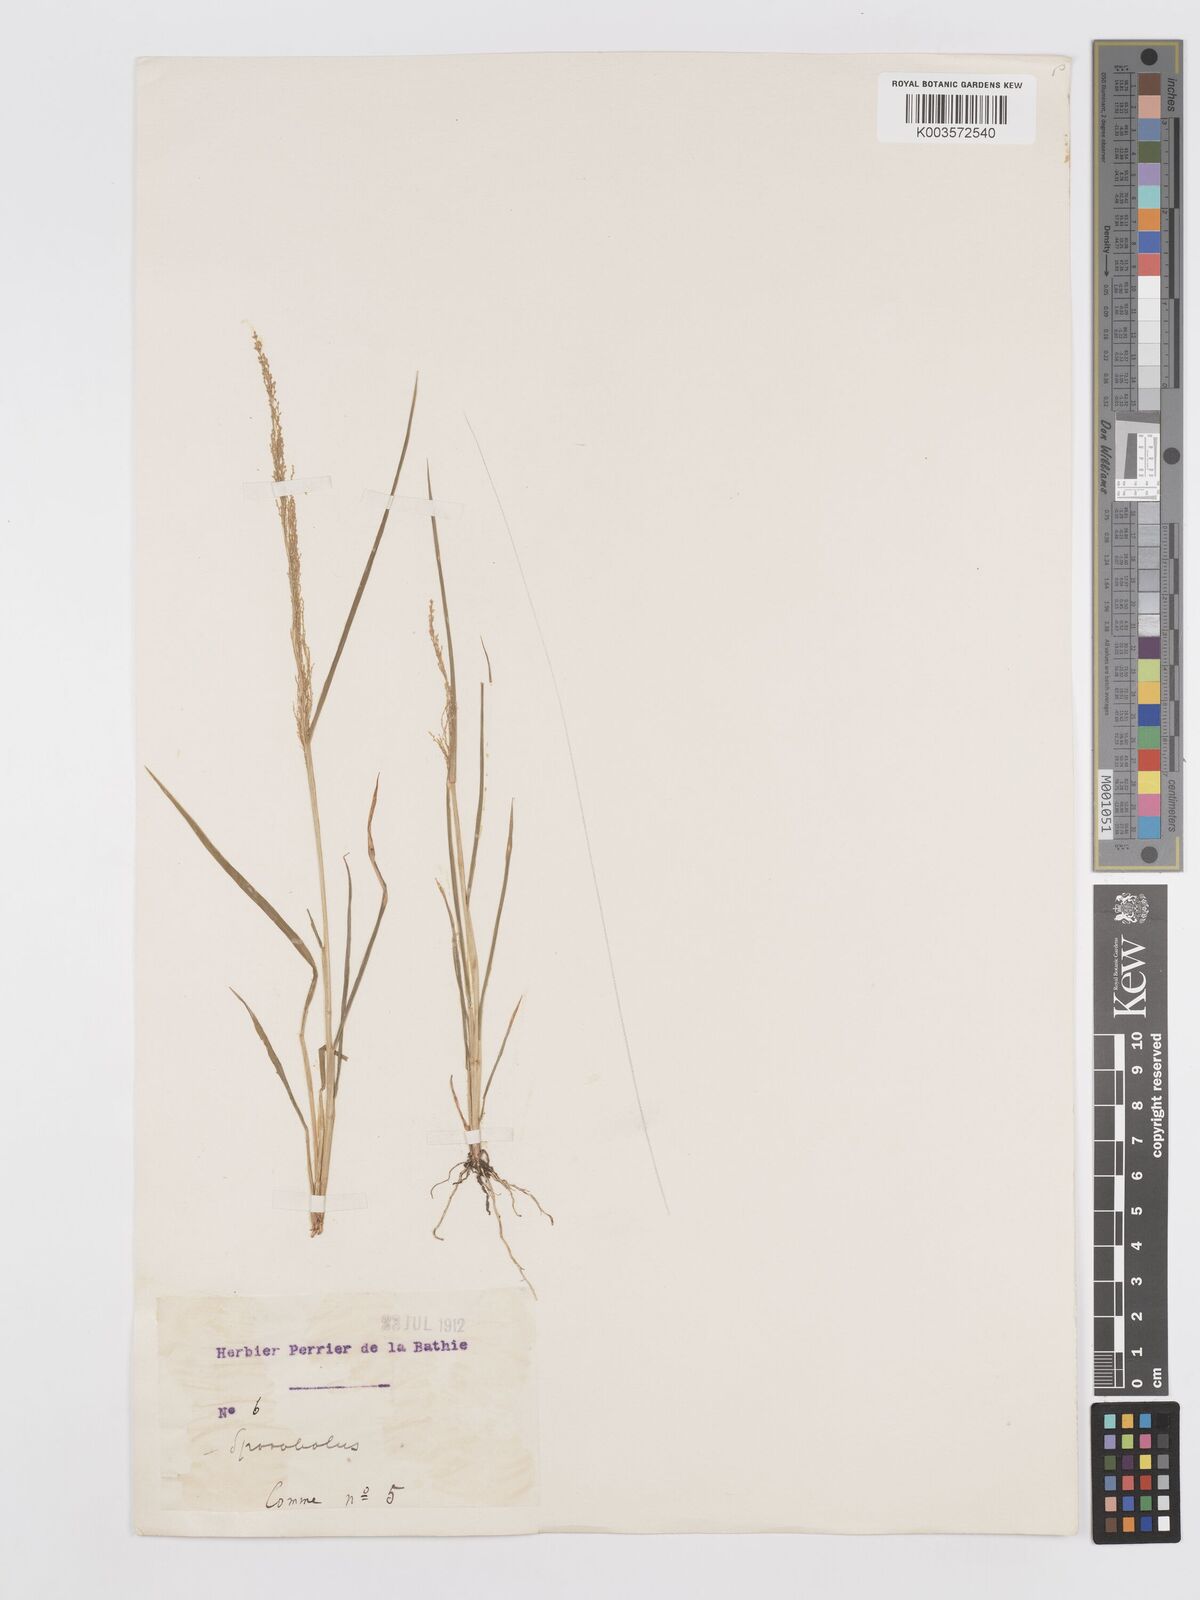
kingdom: Plantae
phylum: Tracheophyta
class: Liliopsida
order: Poales
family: Poaceae
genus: Eragrostis
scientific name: Eragrostis japonica
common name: Pond lovegrass
